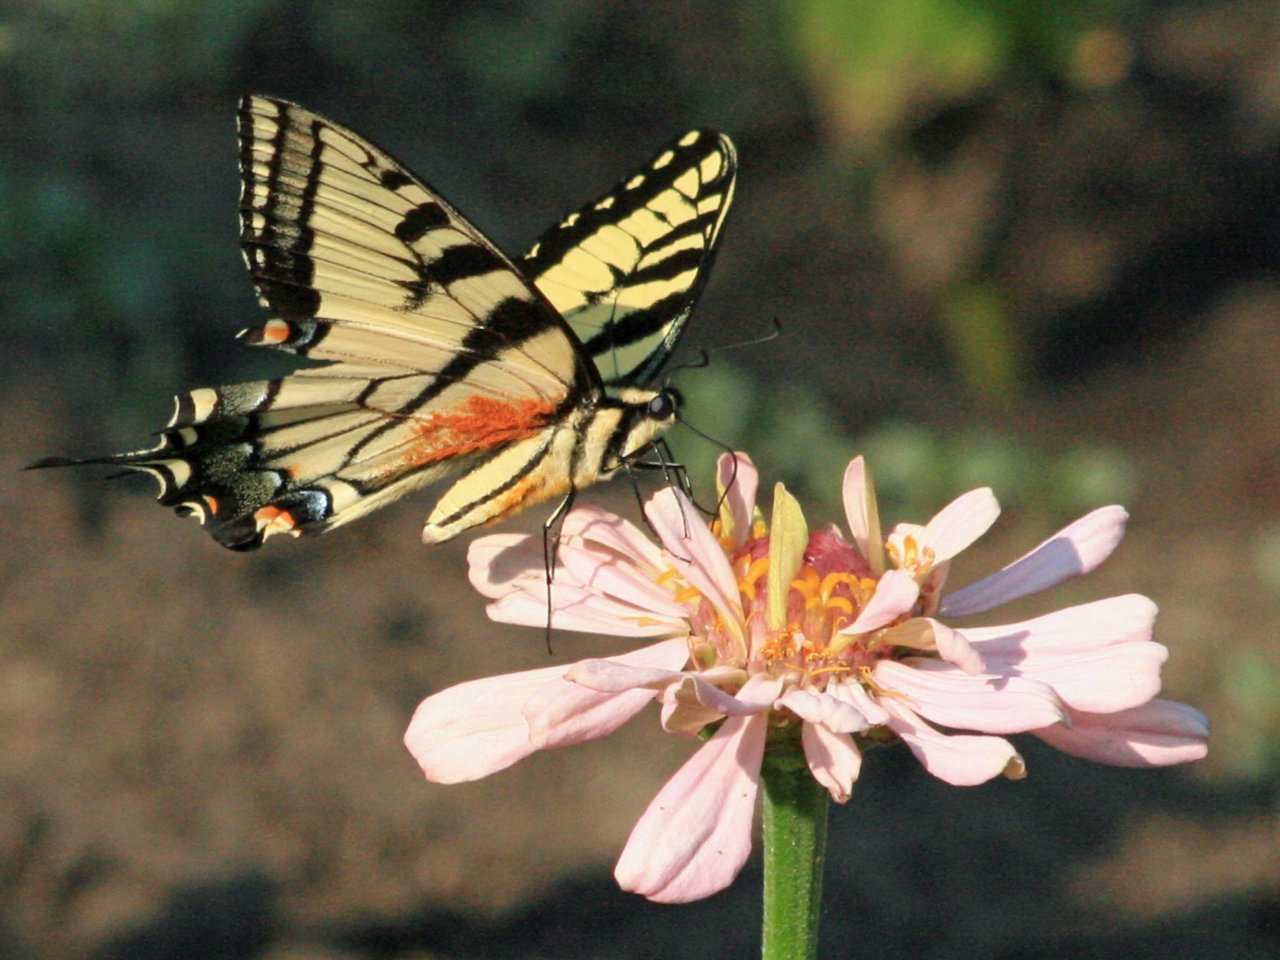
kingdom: Animalia
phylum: Arthropoda
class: Insecta
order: Lepidoptera
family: Papilionidae
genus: Pterourus
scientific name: Pterourus
